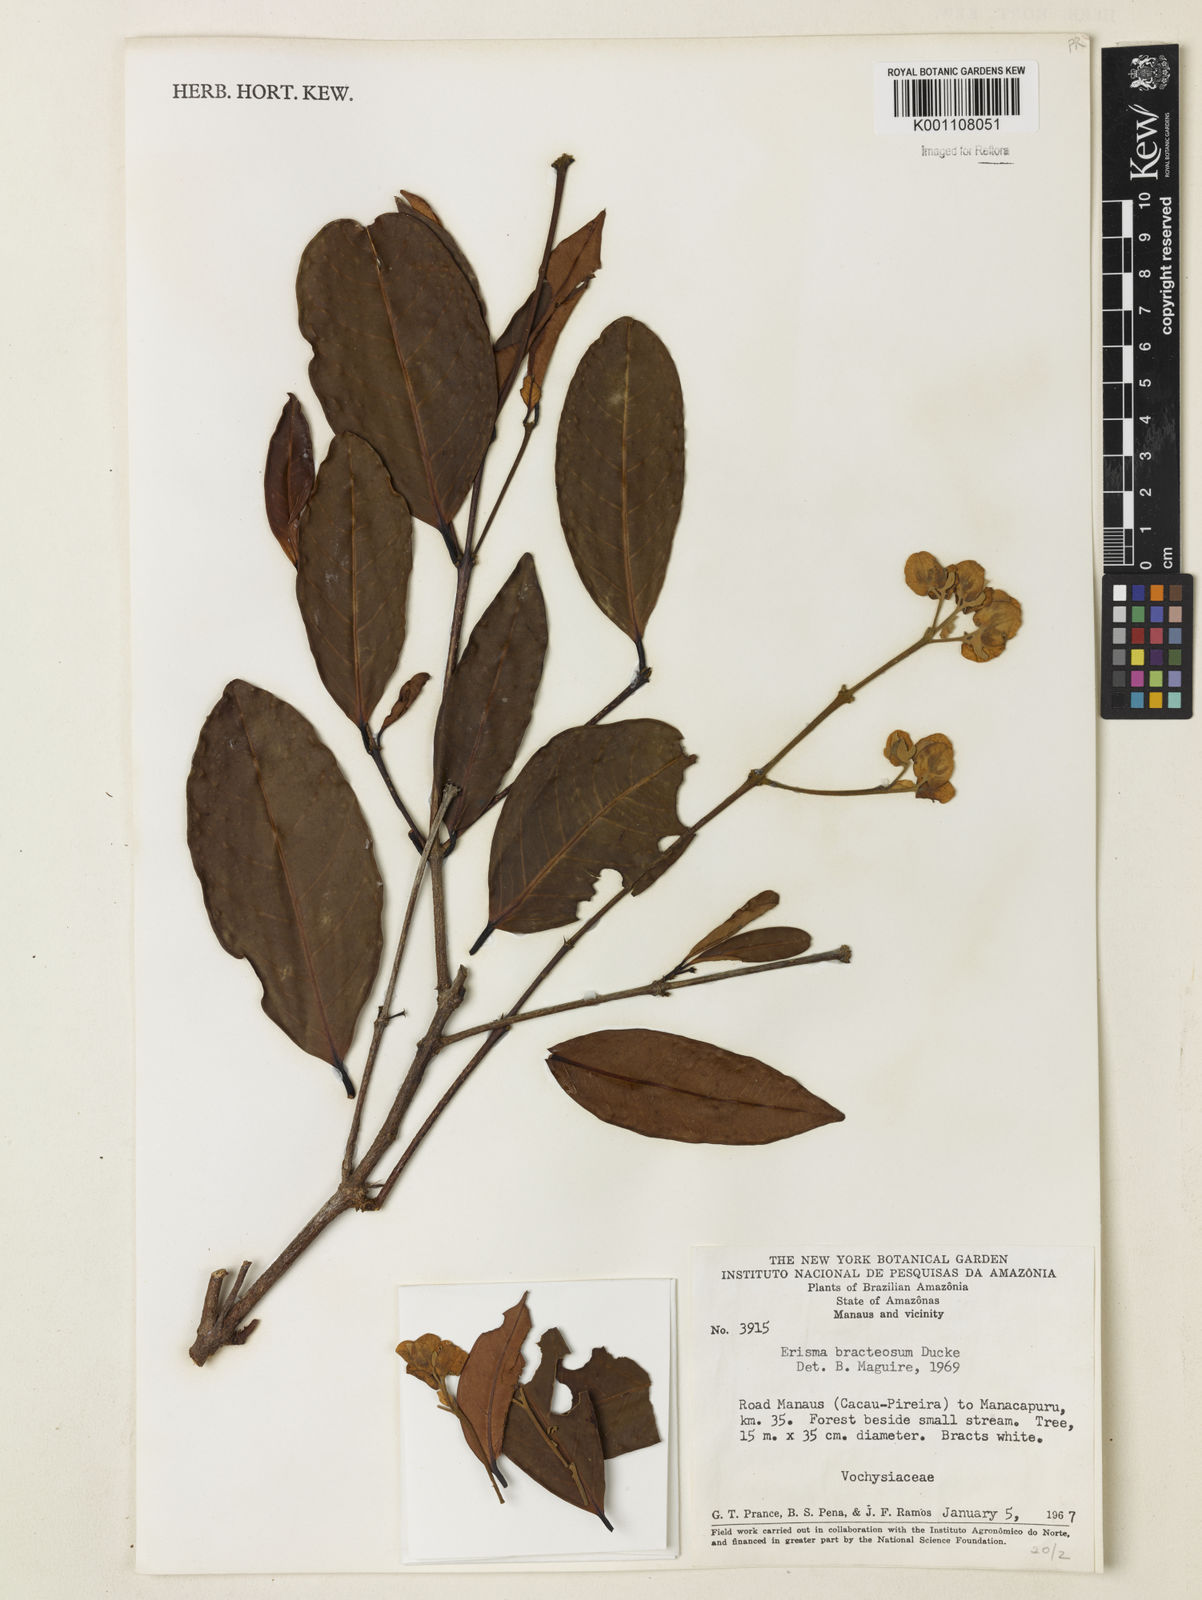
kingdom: Plantae
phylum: Tracheophyta
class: Magnoliopsida
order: Myrtales
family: Vochysiaceae
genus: Erisma
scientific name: Erisma bracteosum
